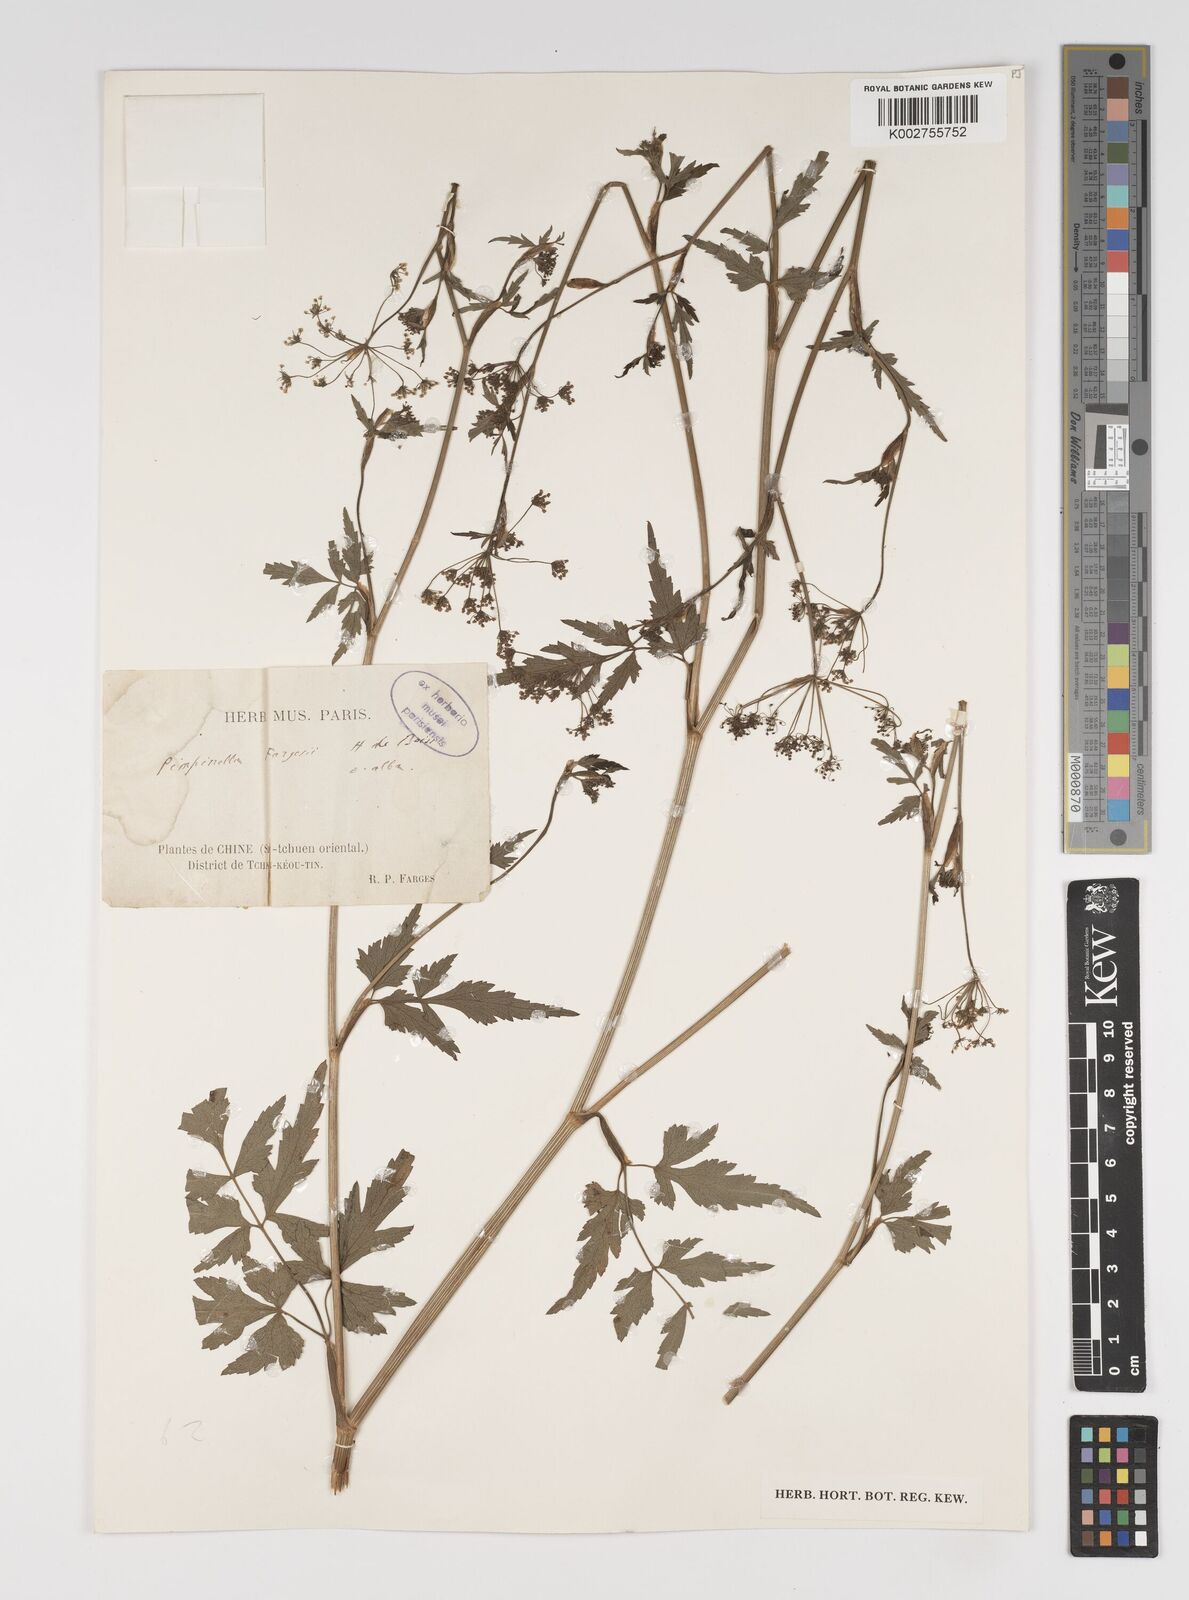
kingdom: Plantae
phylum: Tracheophyta
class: Magnoliopsida
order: Apiales
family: Apiaceae
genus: Pimpinella
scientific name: Pimpinella fargesii
